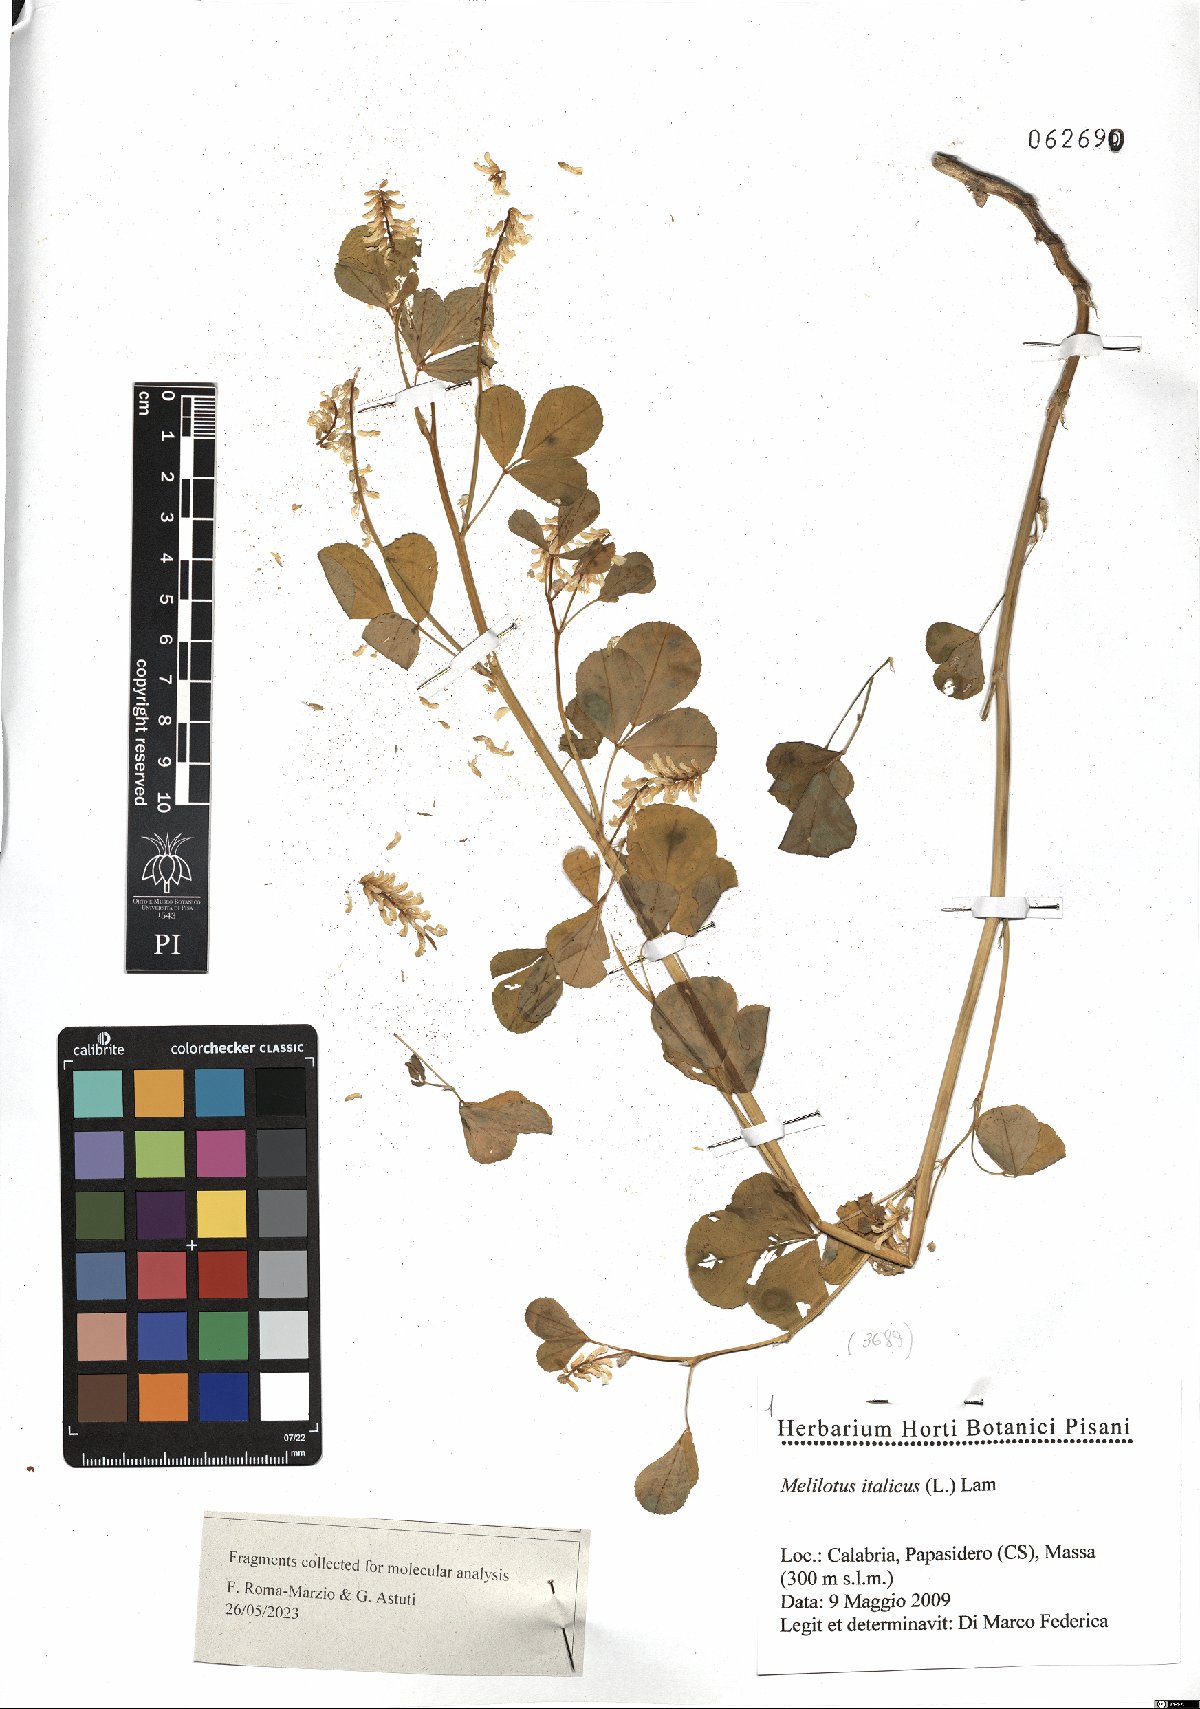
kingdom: Plantae
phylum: Tracheophyta
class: Magnoliopsida
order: Fabales
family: Fabaceae
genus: Melilotus
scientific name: Melilotus italicus
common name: Italian melilot
